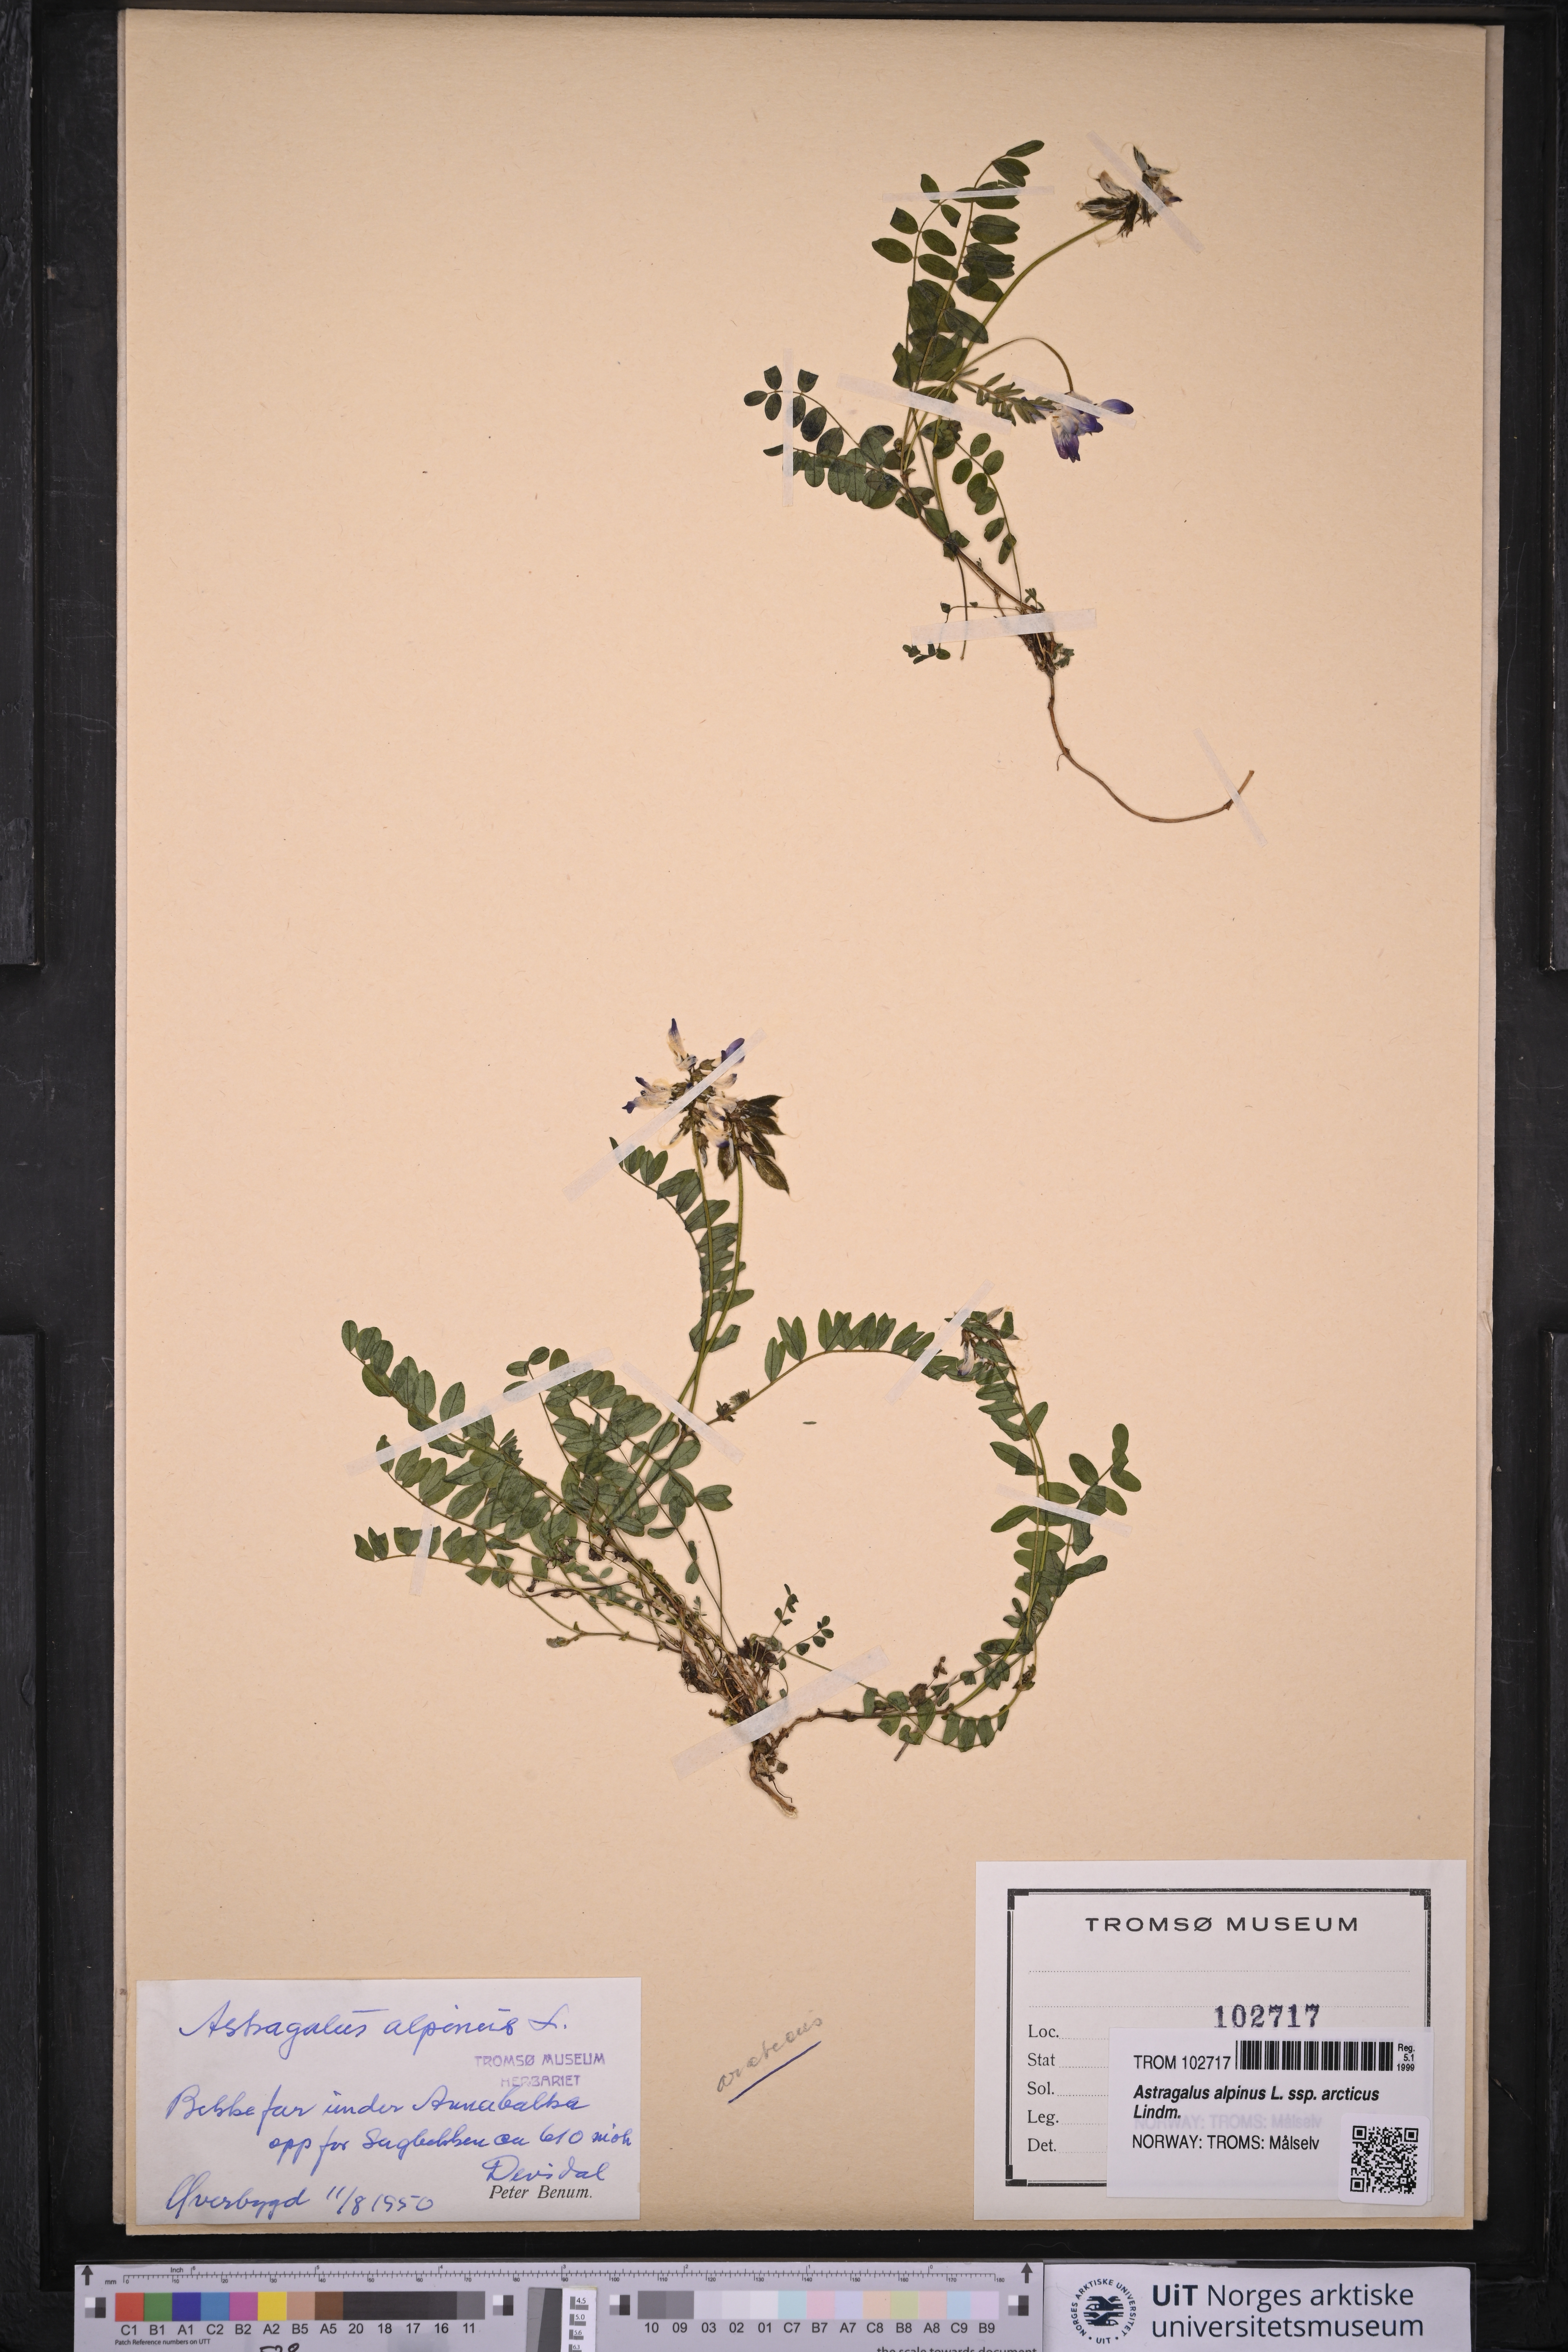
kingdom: Plantae
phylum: Tracheophyta
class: Magnoliopsida
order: Fabales
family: Fabaceae
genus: Astragalus
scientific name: Astragalus norvegicus
